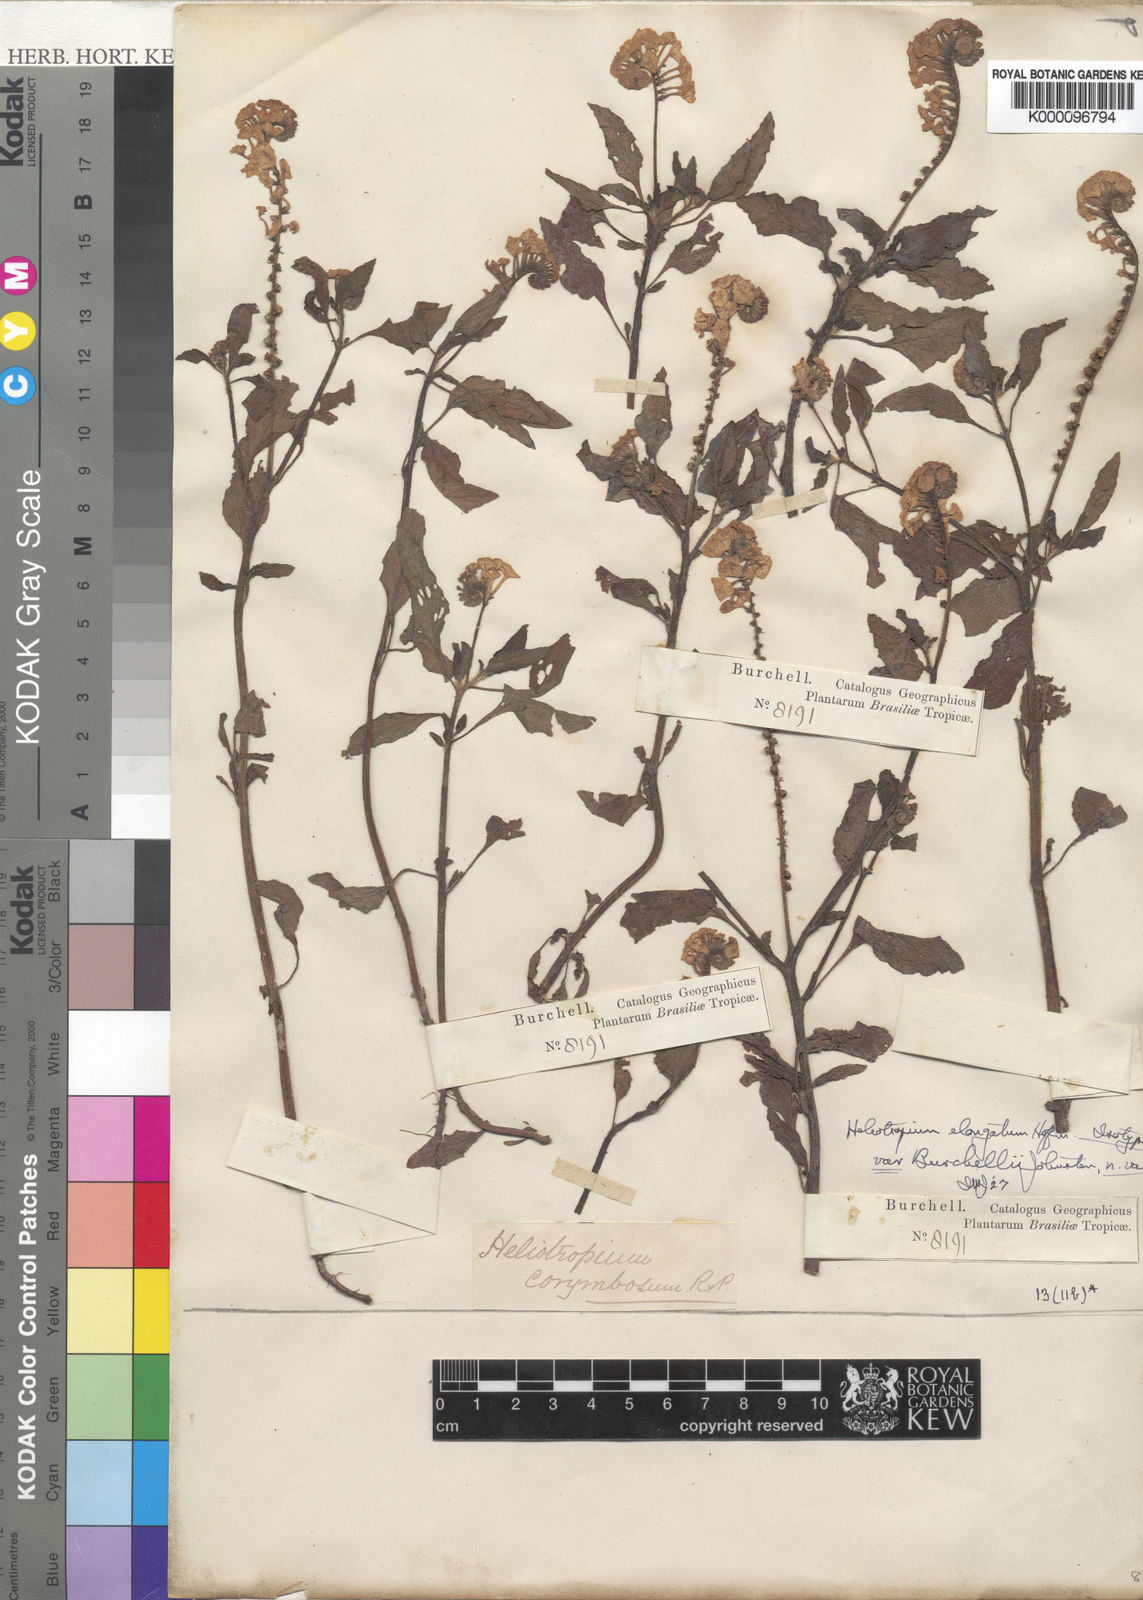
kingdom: Plantae
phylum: Tracheophyta
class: Magnoliopsida
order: Boraginales
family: Heliotropiaceae
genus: Heliotropium
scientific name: Heliotropium elongatum
